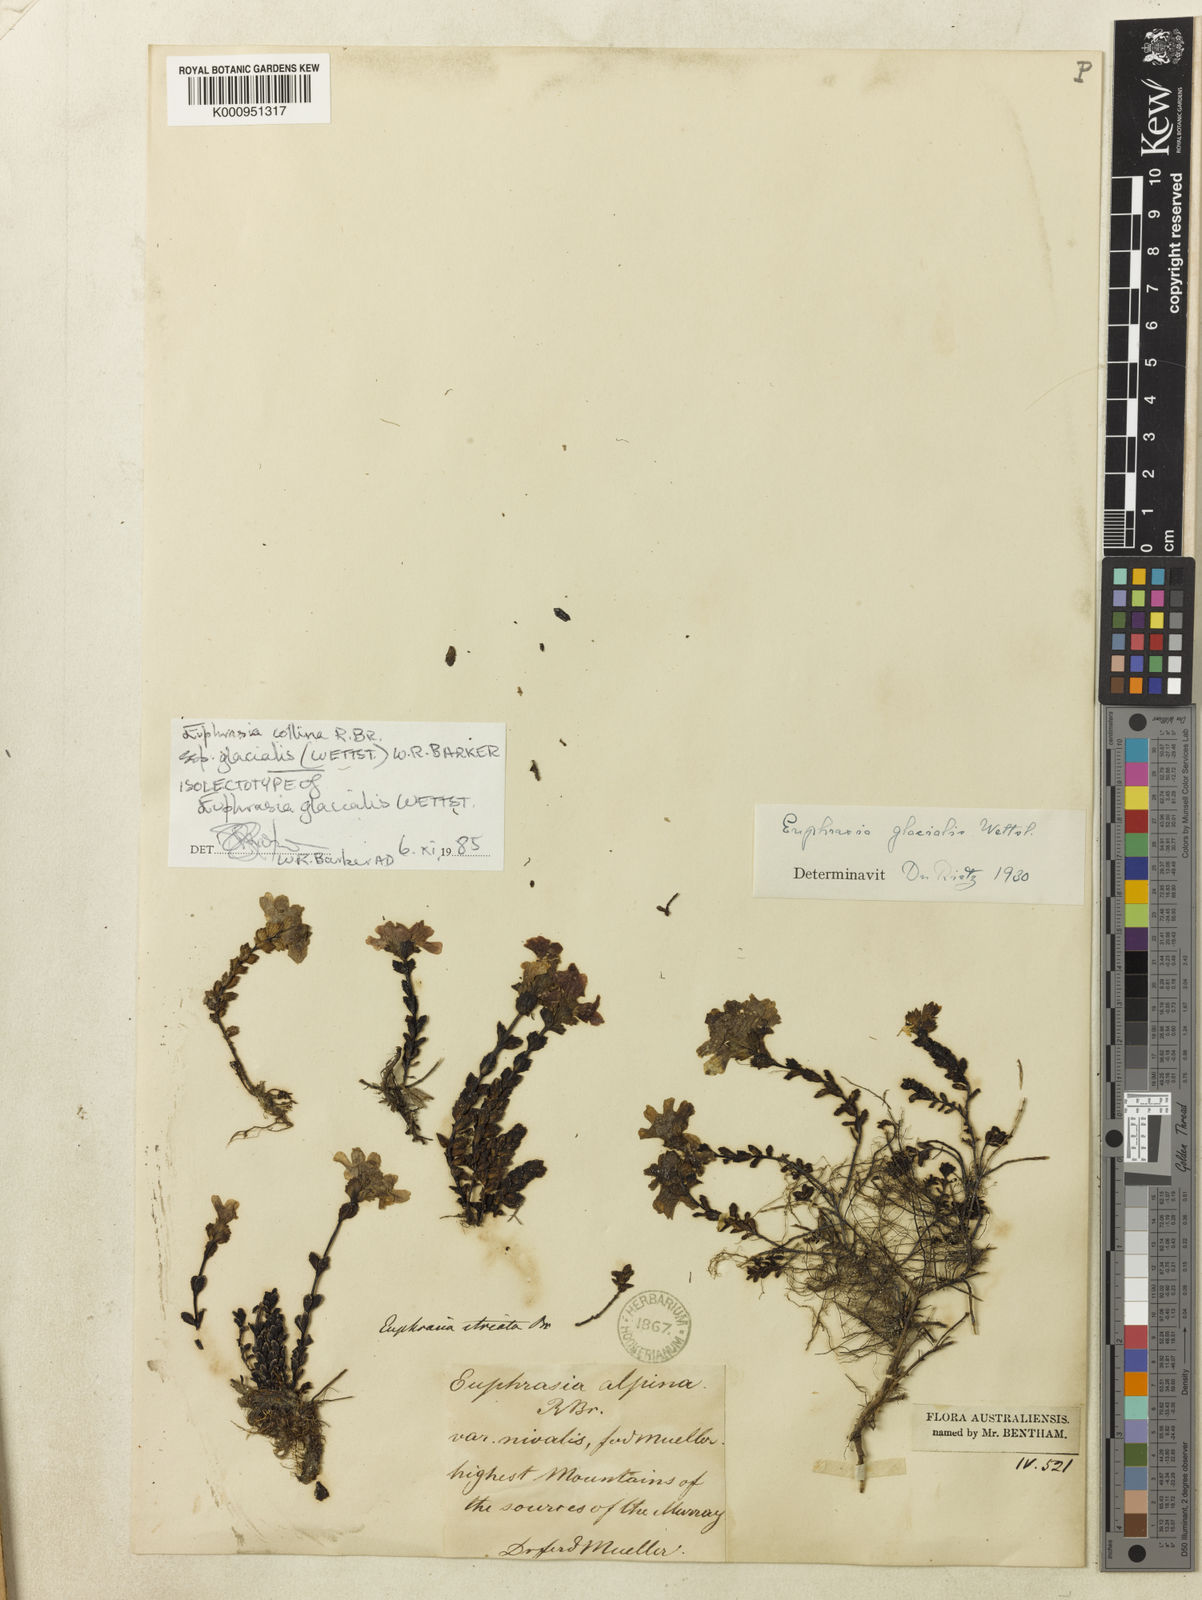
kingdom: Plantae
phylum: Tracheophyta
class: Magnoliopsida
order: Lamiales
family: Orobanchaceae
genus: Euphrasia
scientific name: Euphrasia collina
